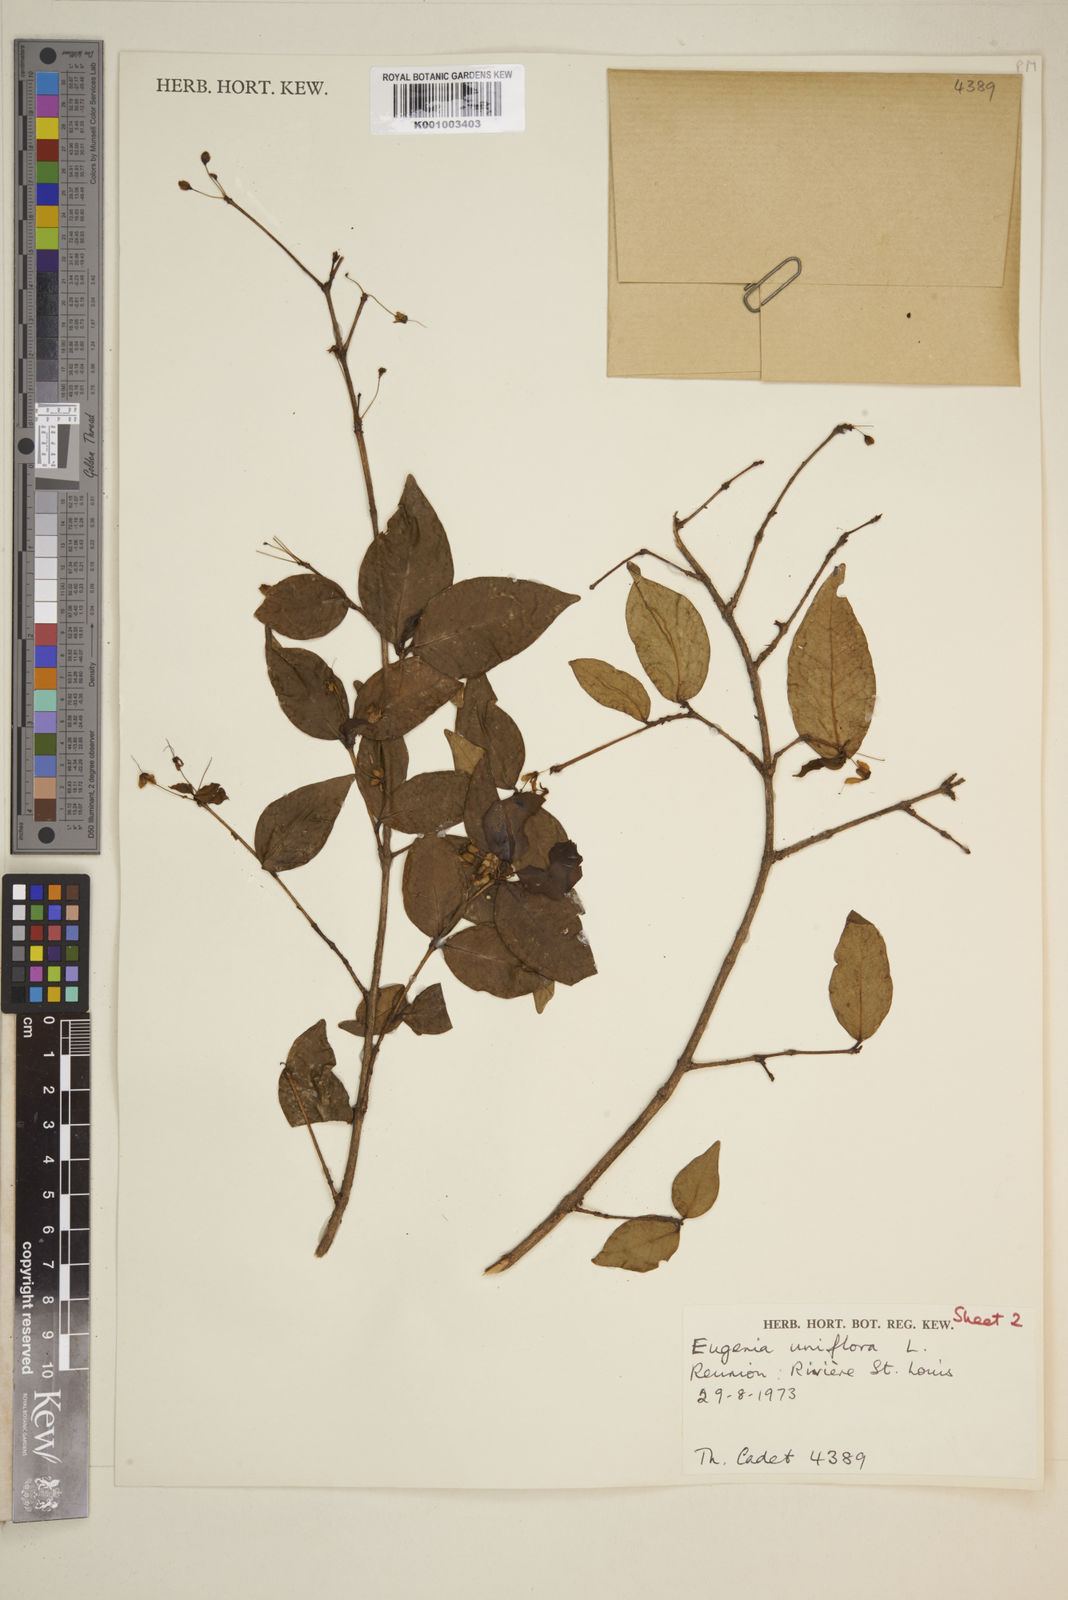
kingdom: Plantae
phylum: Tracheophyta
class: Magnoliopsida
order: Myrtales
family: Myrtaceae
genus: Eugenia
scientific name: Eugenia uniflora
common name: Surinam cherry
